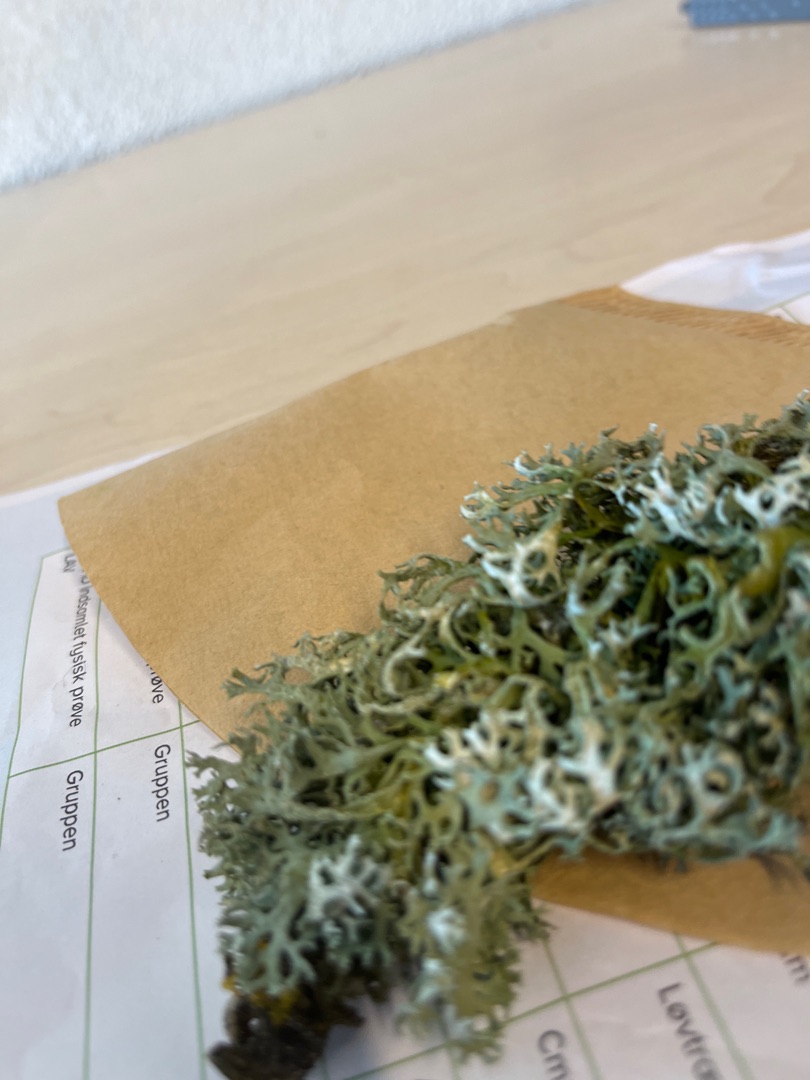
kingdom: Fungi
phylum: Ascomycota
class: Lecanoromycetes
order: Lecanorales
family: Parmeliaceae
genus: Evernia
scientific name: Evernia prunastri
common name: Almindelig slåenlav
